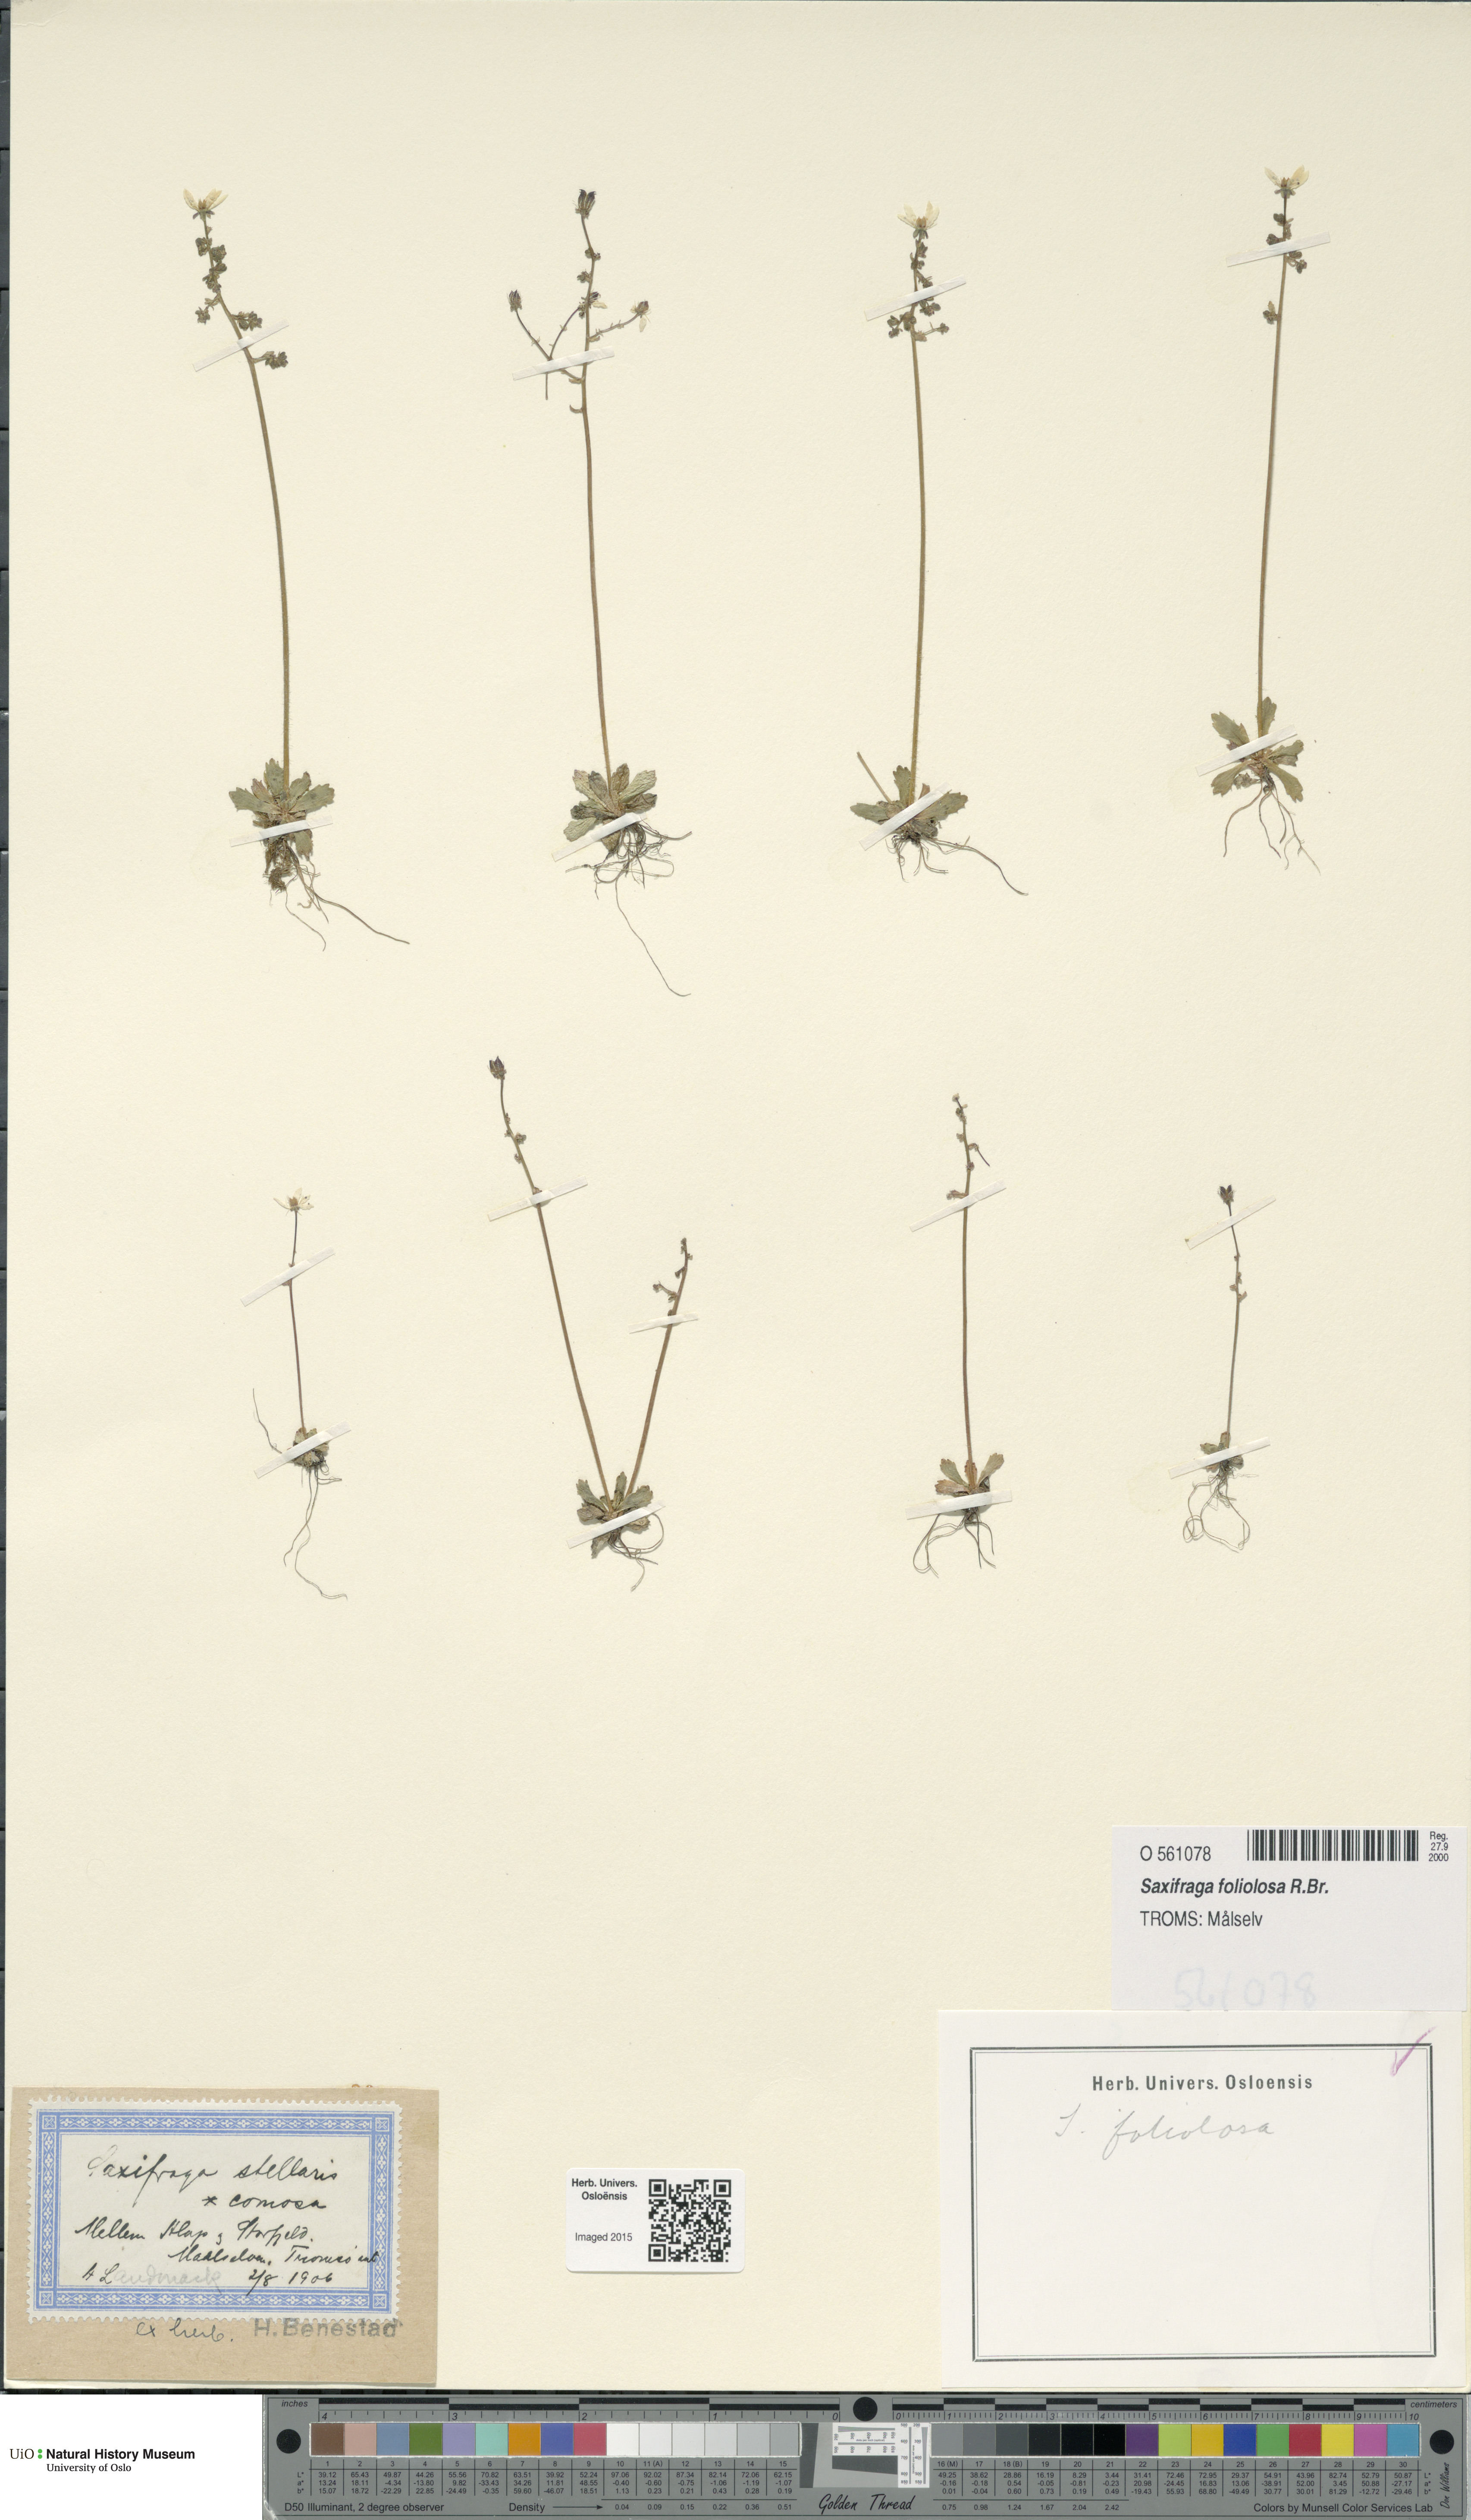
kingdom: Plantae
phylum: Tracheophyta
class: Magnoliopsida
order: Saxifragales
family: Saxifragaceae
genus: Micranthes
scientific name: Micranthes foliolosa
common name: Leafystem saxifrage
